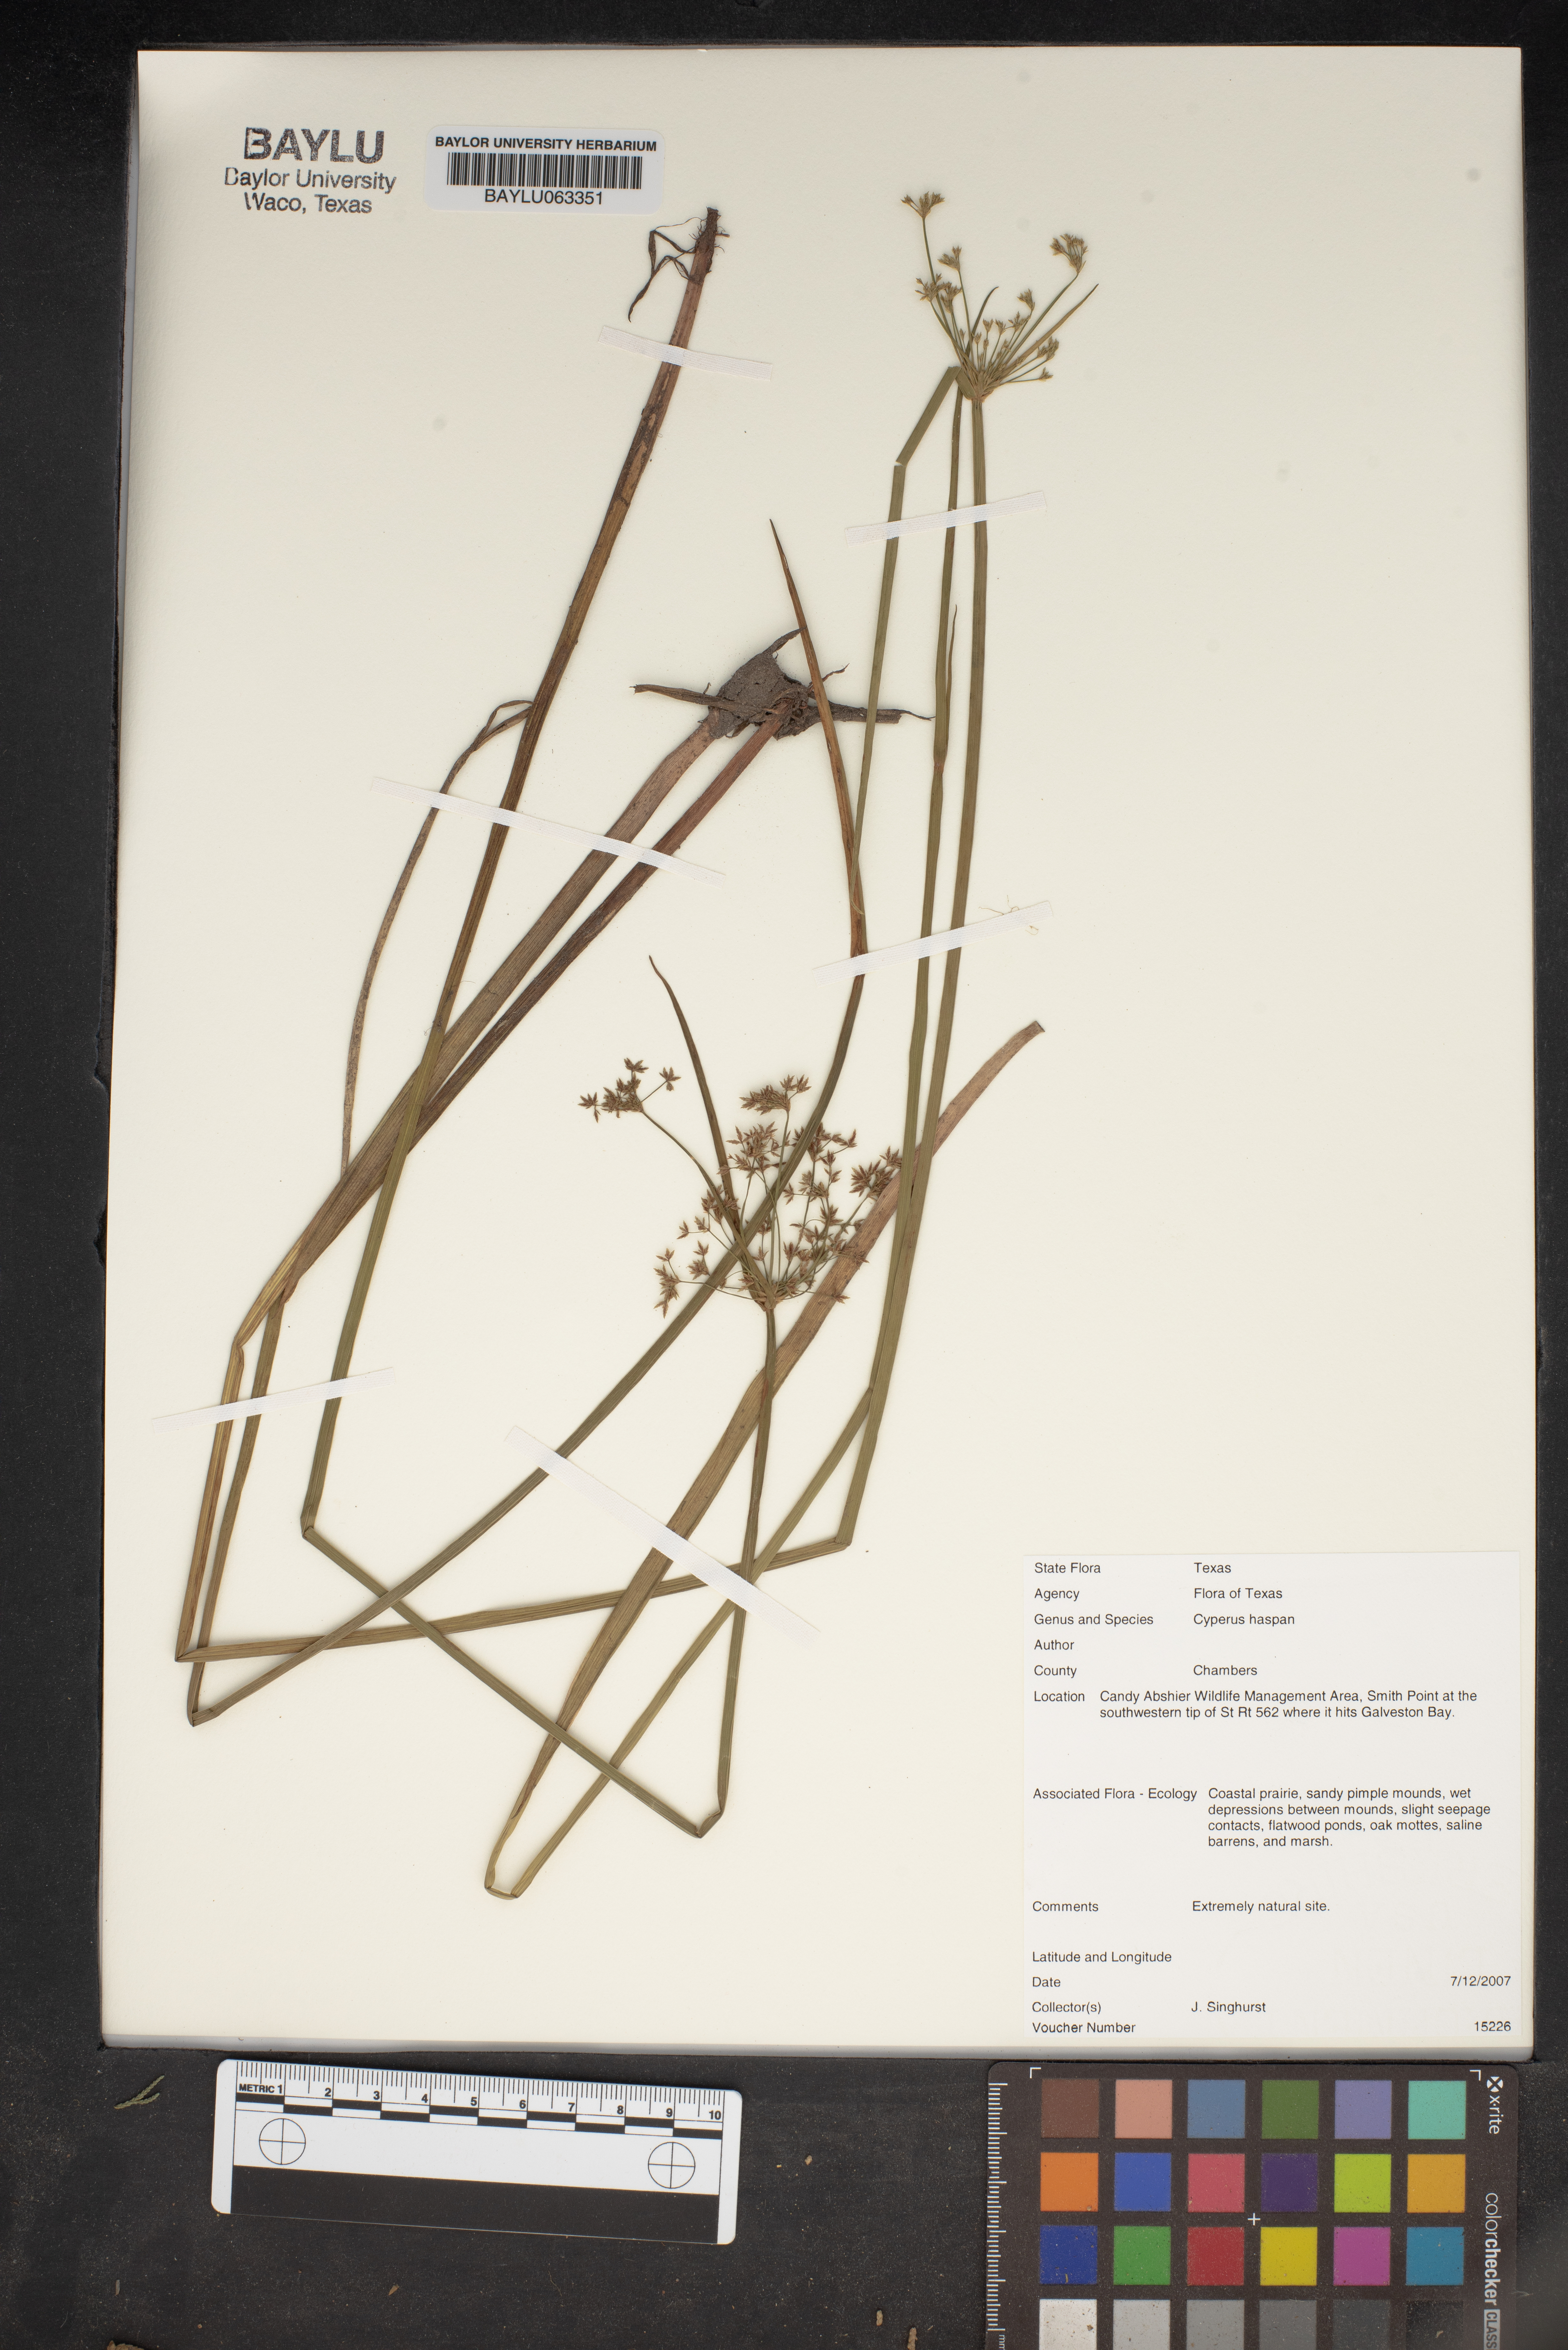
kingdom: Plantae
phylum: Tracheophyta
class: Liliopsida
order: Poales
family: Cyperaceae
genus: Cyperus
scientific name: Cyperus haspan
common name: Haspan flatsedge
